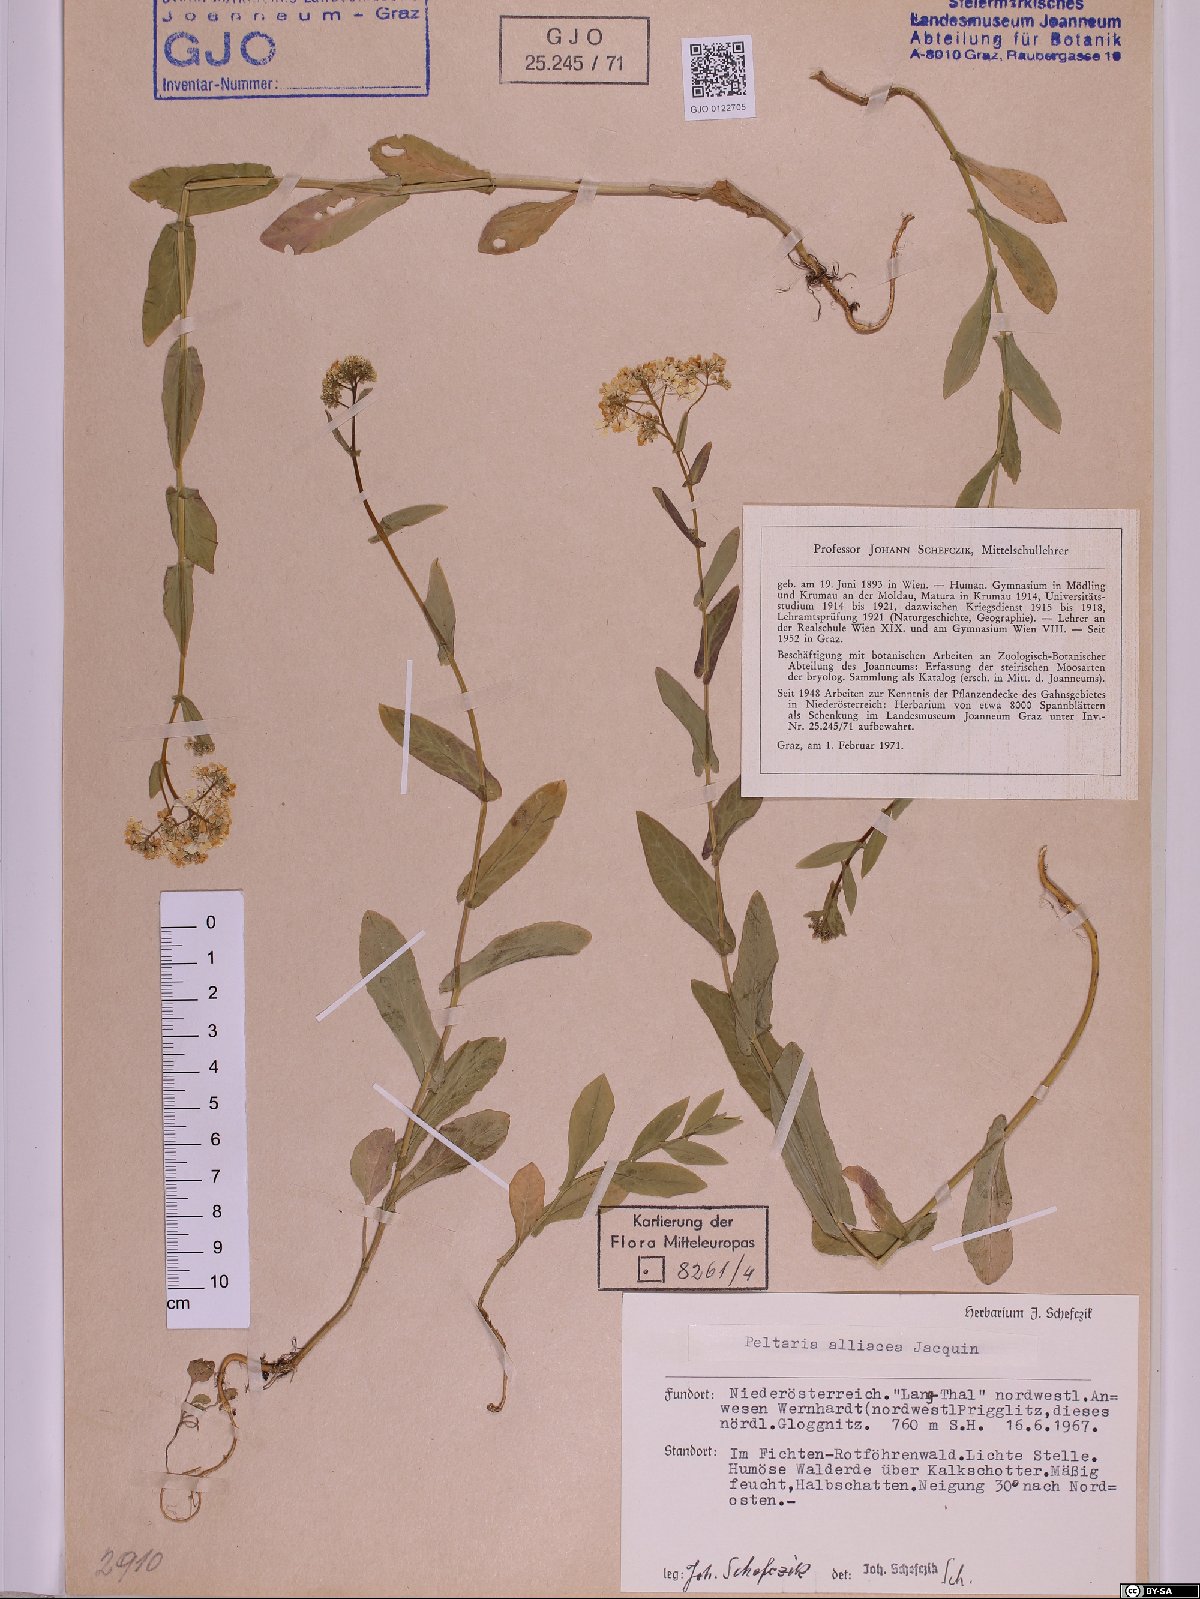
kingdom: Plantae
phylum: Tracheophyta
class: Magnoliopsida
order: Brassicales
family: Brassicaceae
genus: Peltaria
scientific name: Peltaria alliacea
